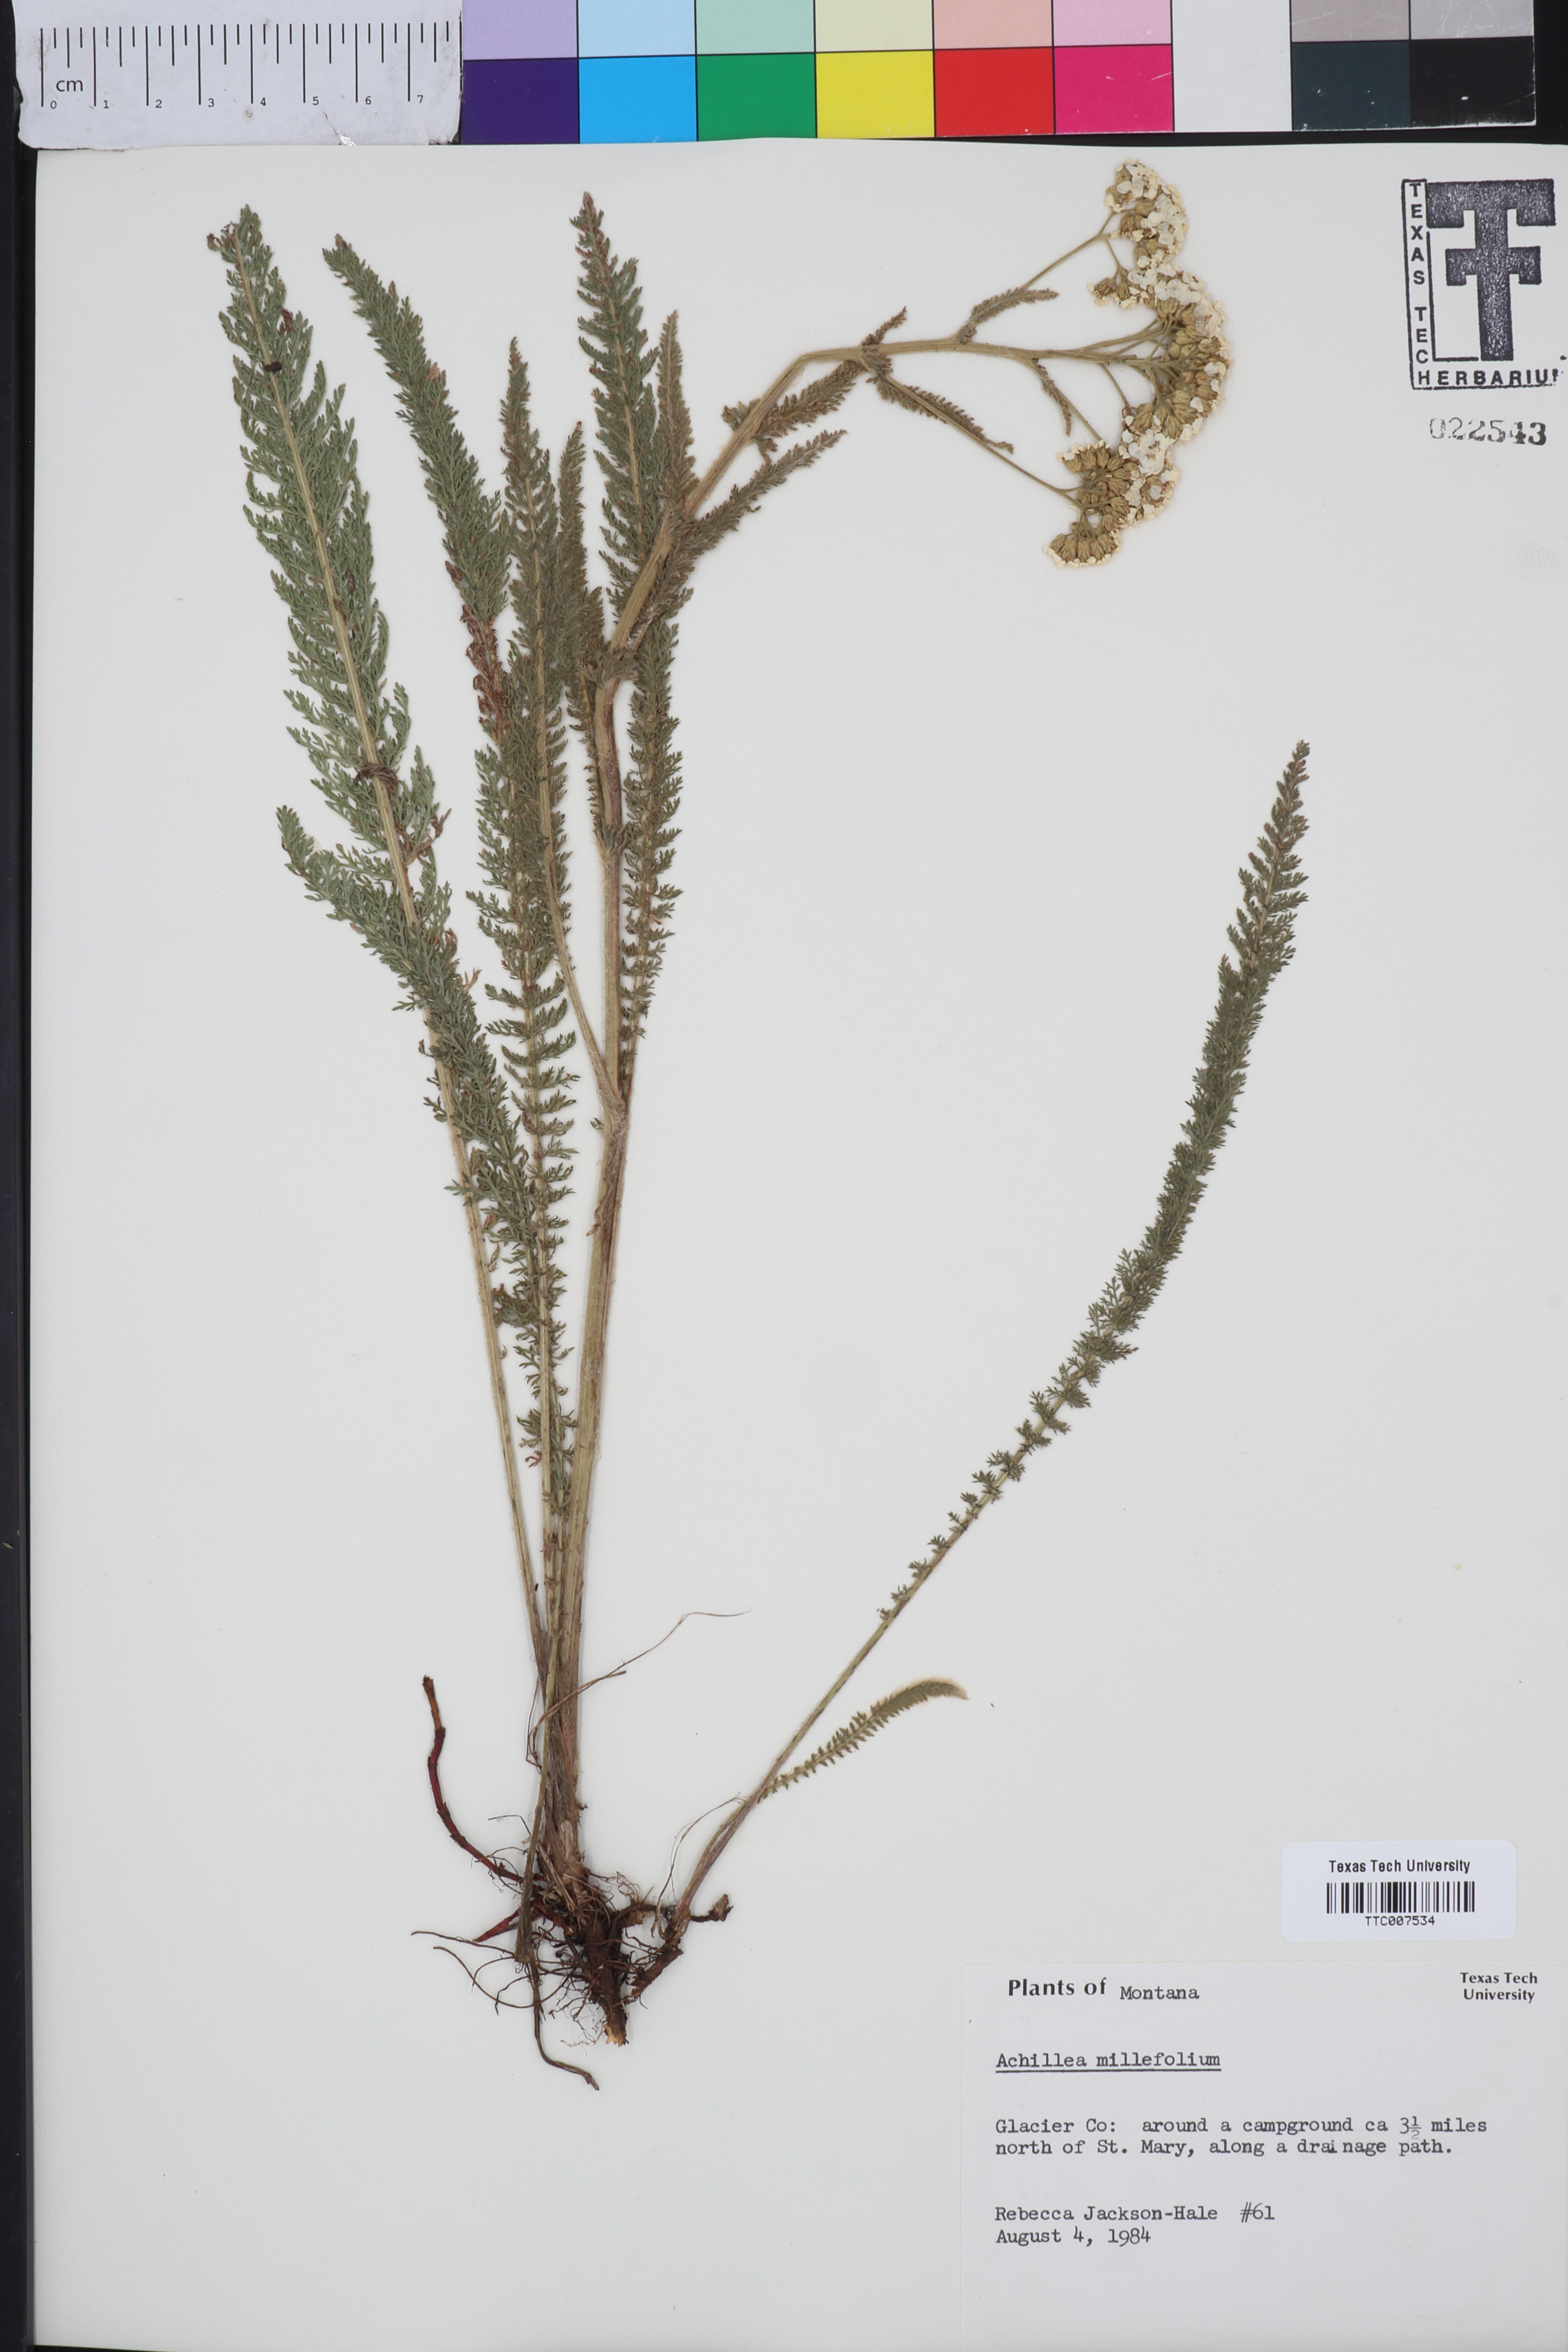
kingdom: Plantae
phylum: Tracheophyta
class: Magnoliopsida
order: Asterales
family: Asteraceae
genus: Achillea
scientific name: Achillea millefolium
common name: Yarrow
